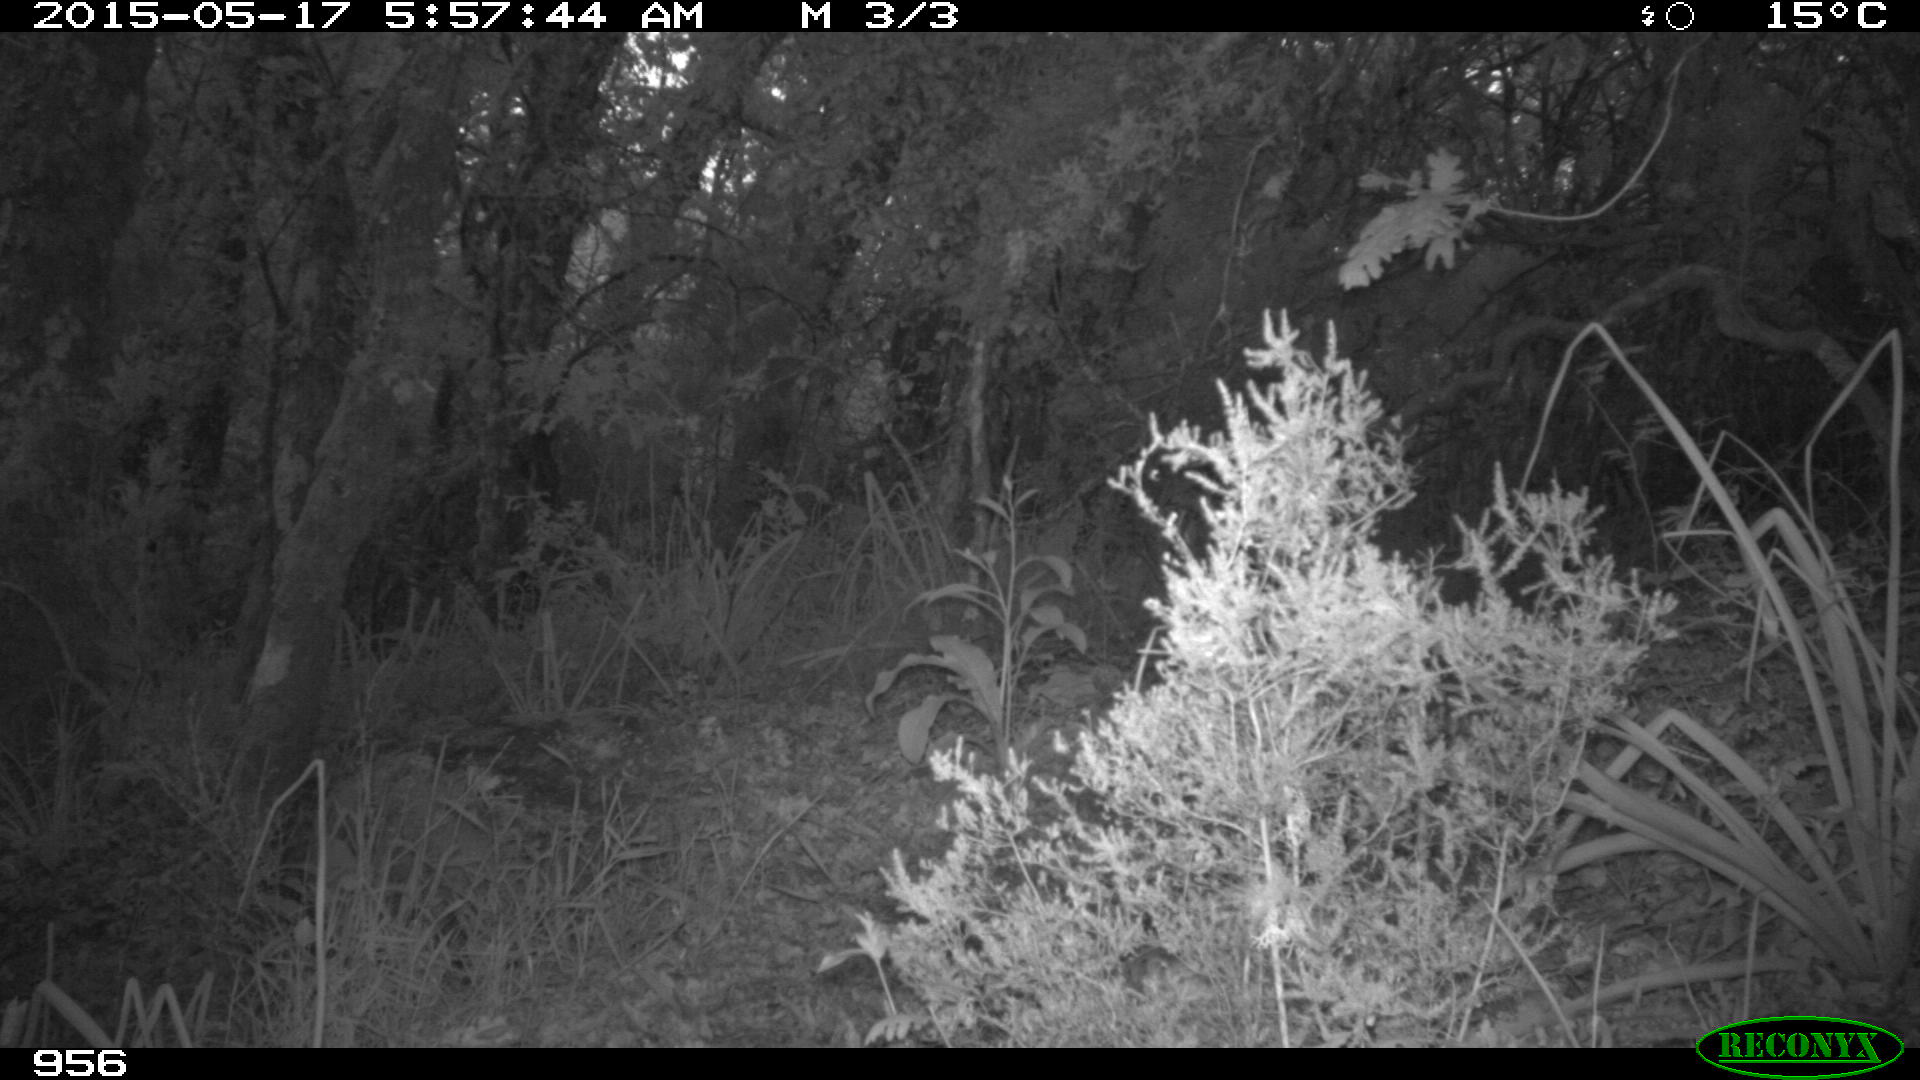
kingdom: Animalia
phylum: Chordata
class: Mammalia
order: Artiodactyla
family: Cervidae
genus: Capreolus
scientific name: Capreolus capreolus
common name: Western roe deer
